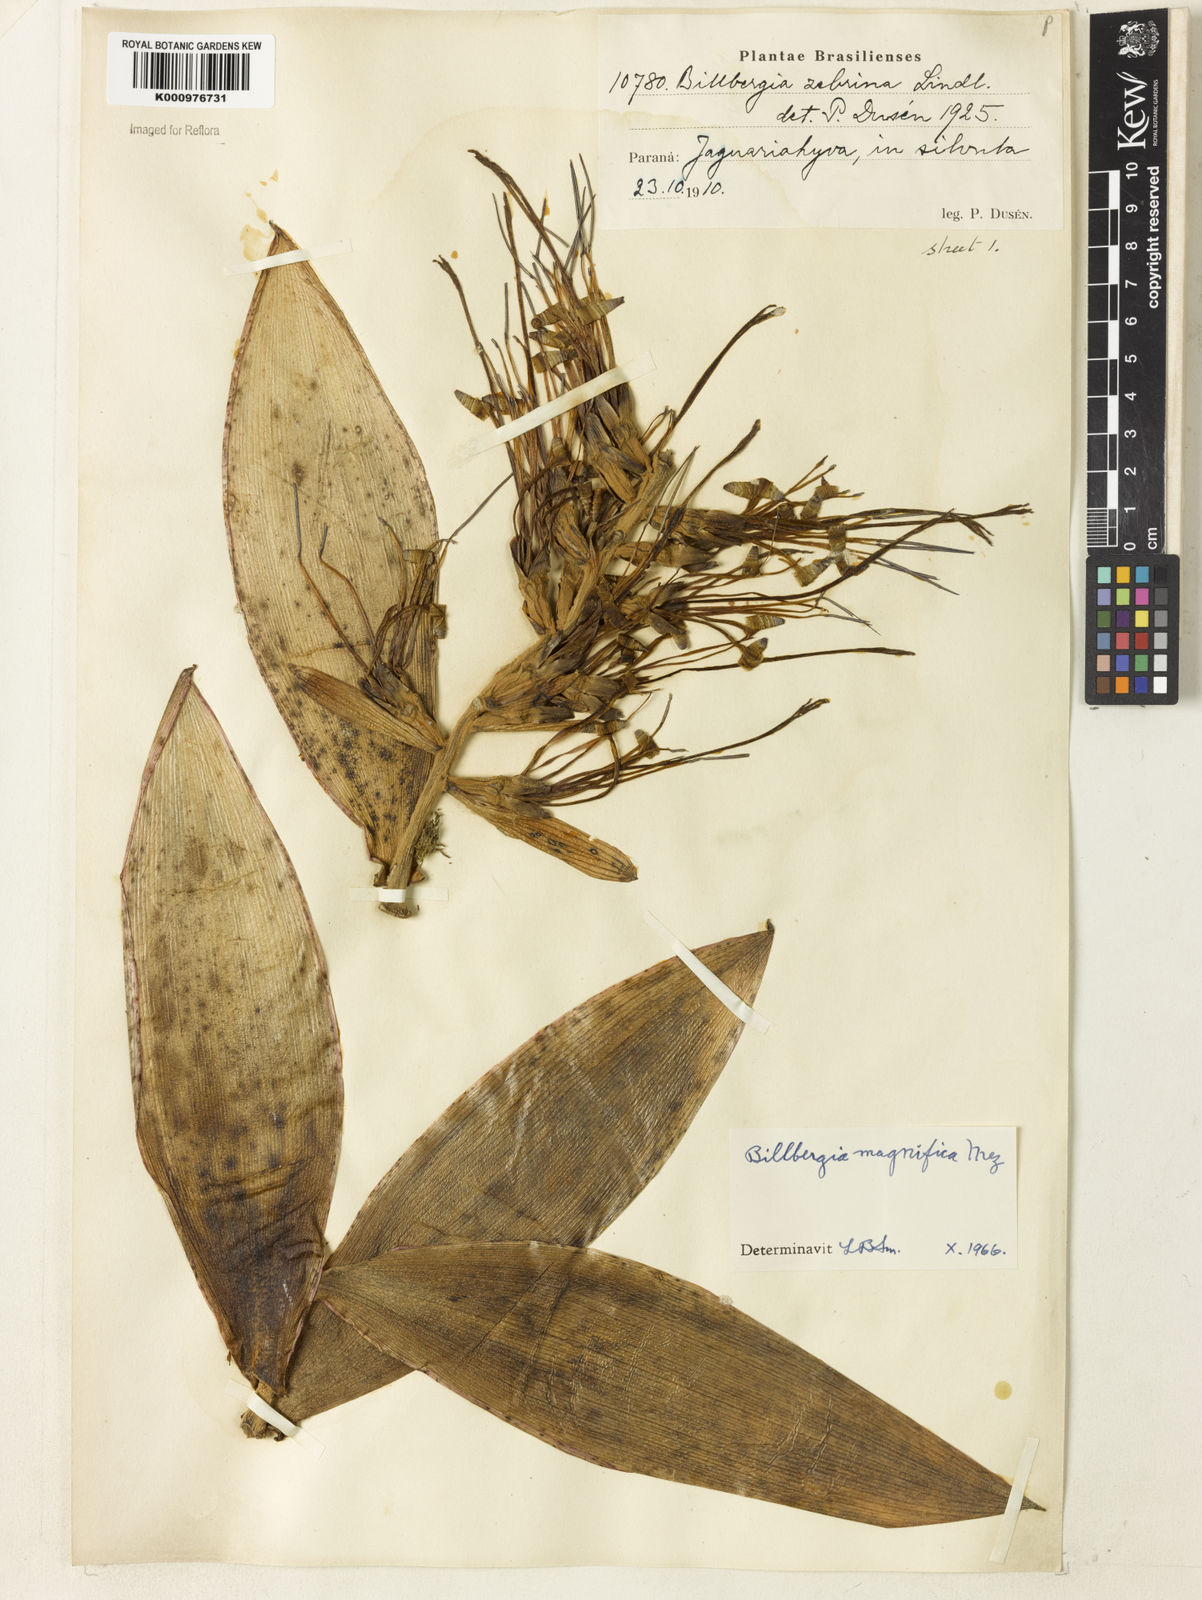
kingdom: Plantae
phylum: Tracheophyta
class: Liliopsida
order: Poales
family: Bromeliaceae
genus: Billbergia
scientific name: Billbergia magnifica
